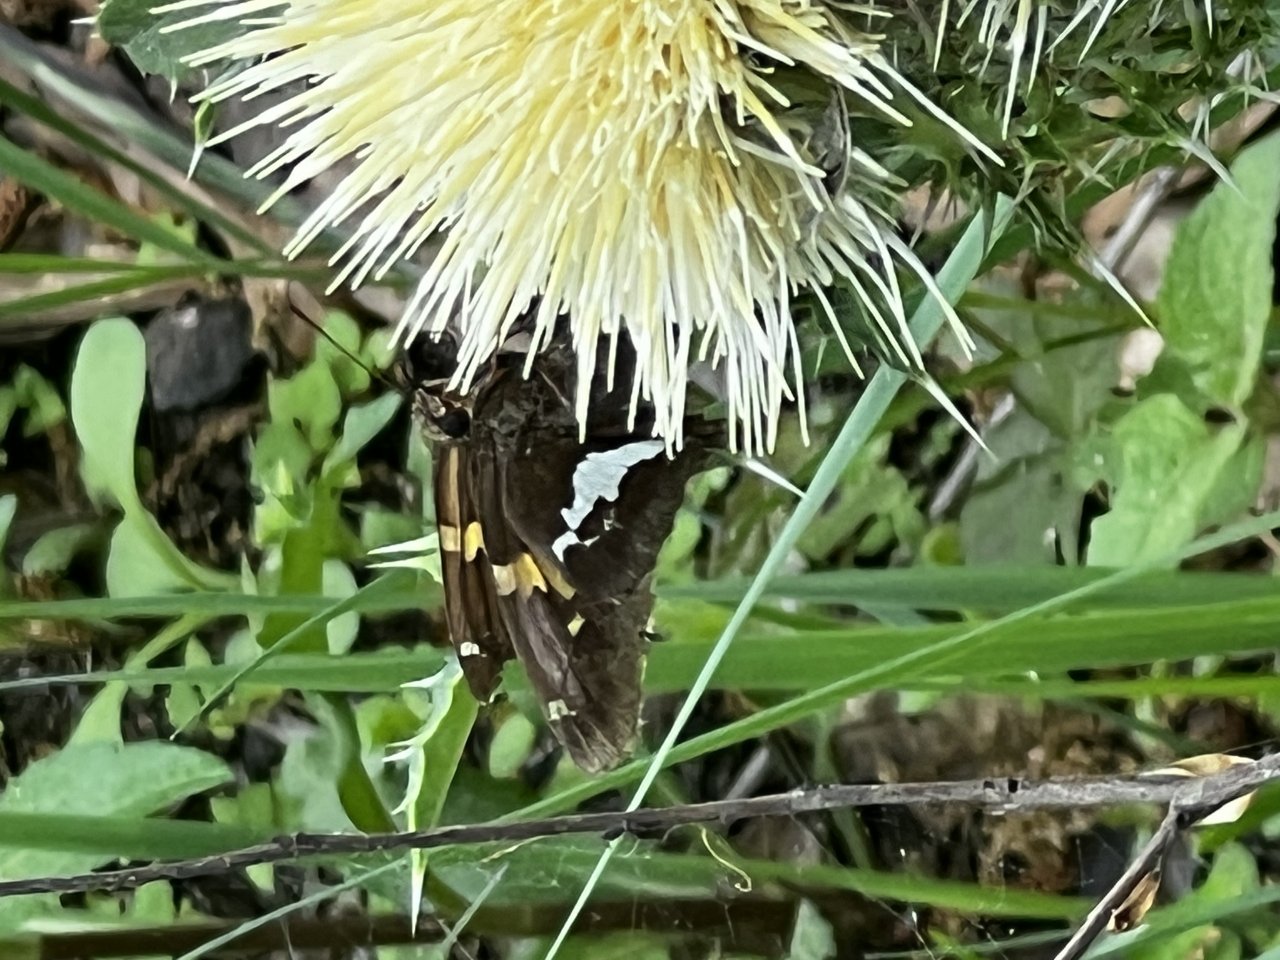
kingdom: Animalia
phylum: Arthropoda
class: Insecta
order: Lepidoptera
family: Hesperiidae
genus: Epargyreus
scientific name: Epargyreus clarus
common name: Silver-spotted Skipper
